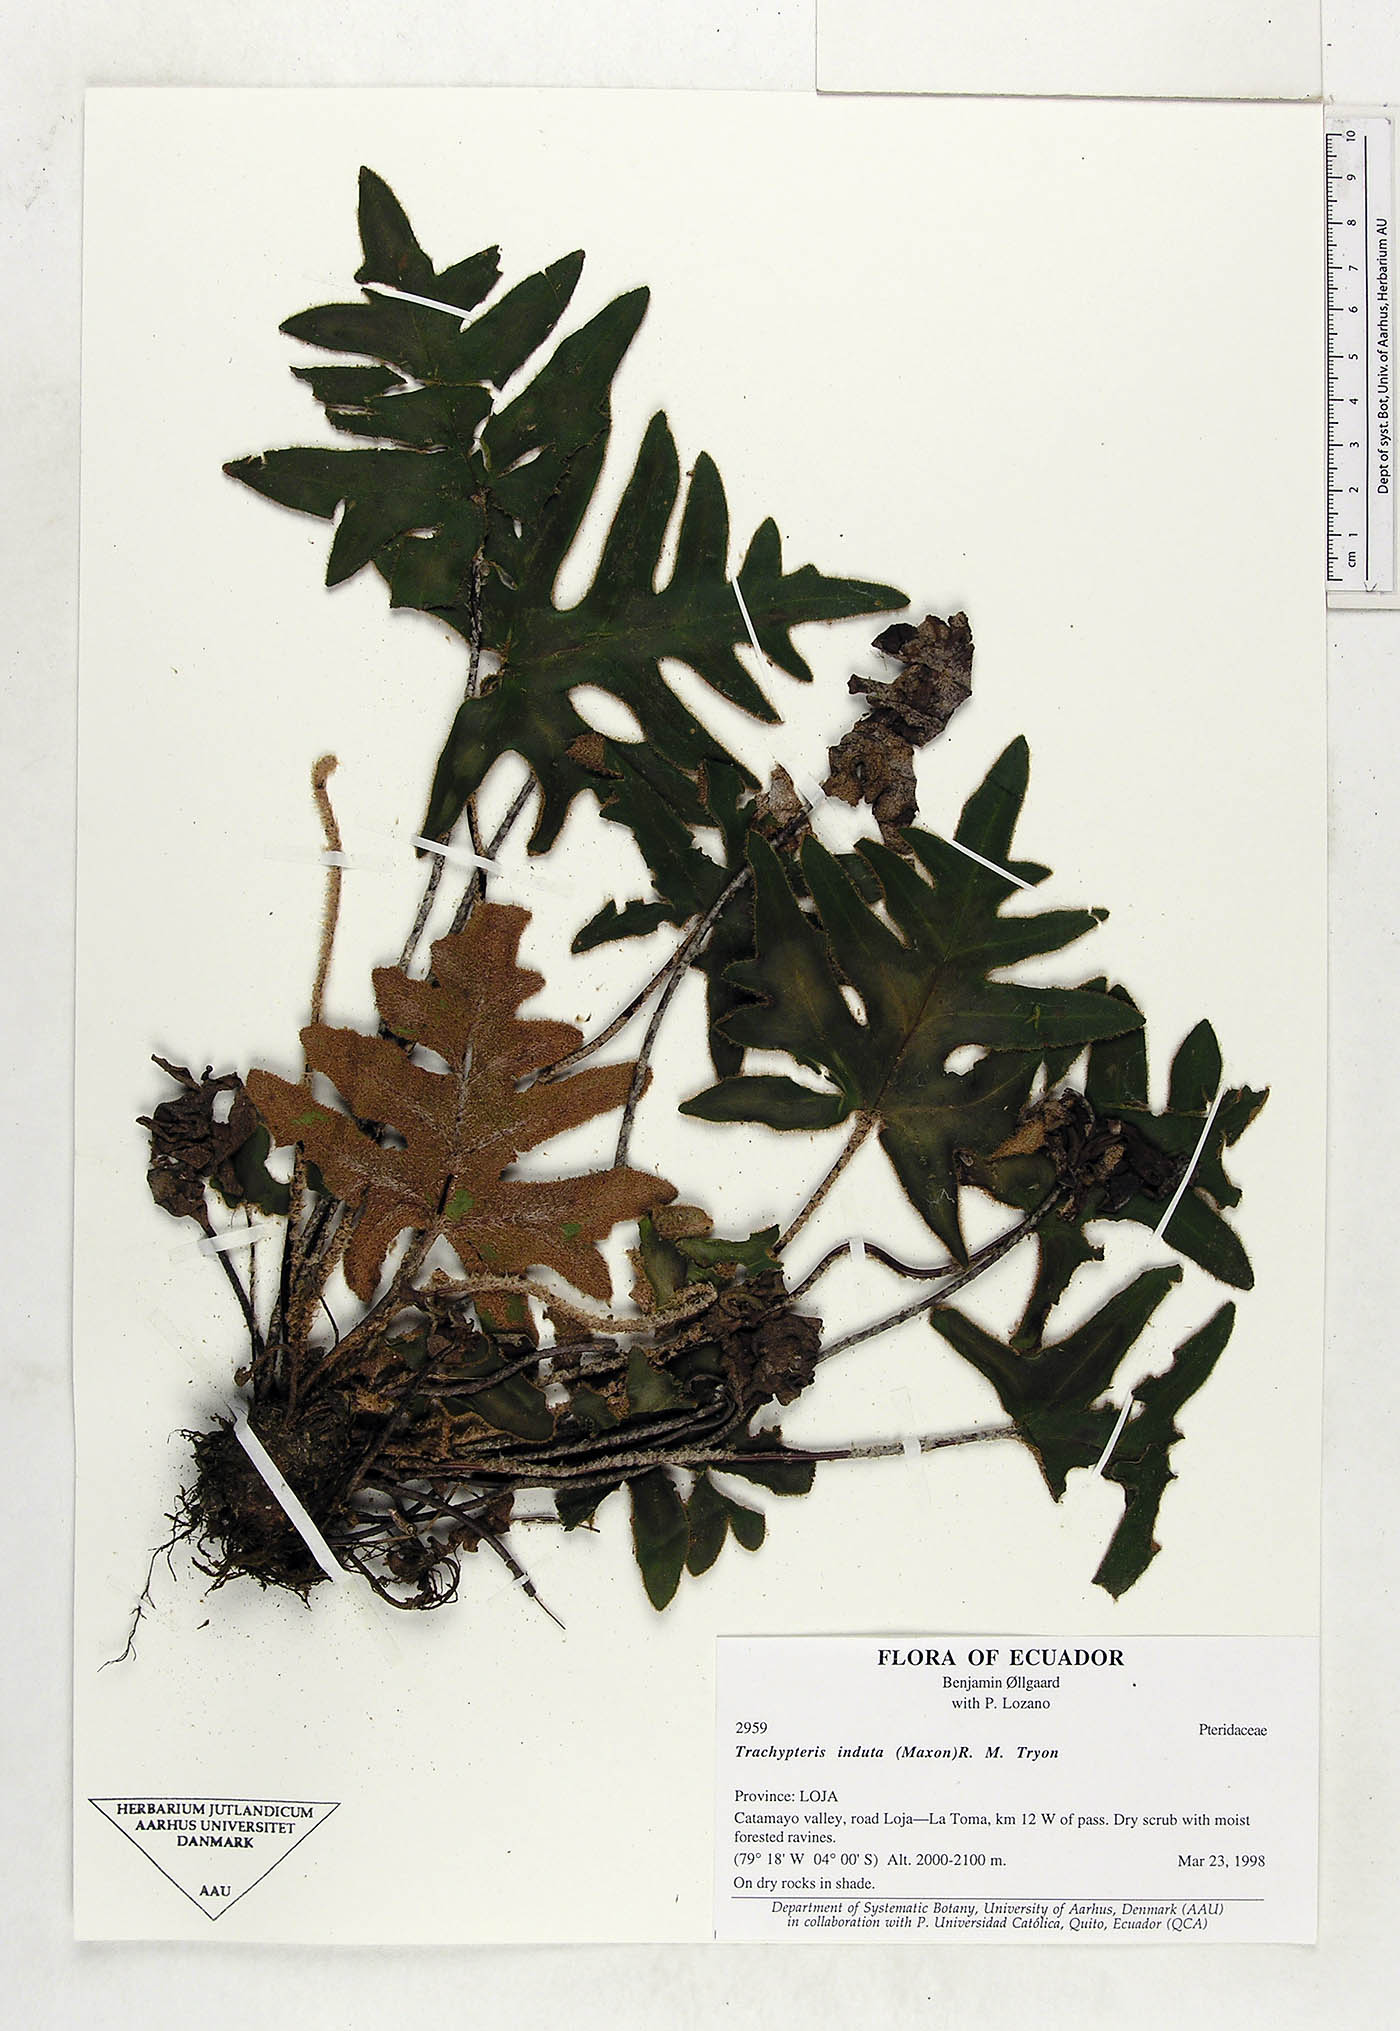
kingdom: Plantae
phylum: Tracheophyta
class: Polypodiopsida
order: Polypodiales
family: Pteridaceae
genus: Trachypteris
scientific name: Trachypteris induta
